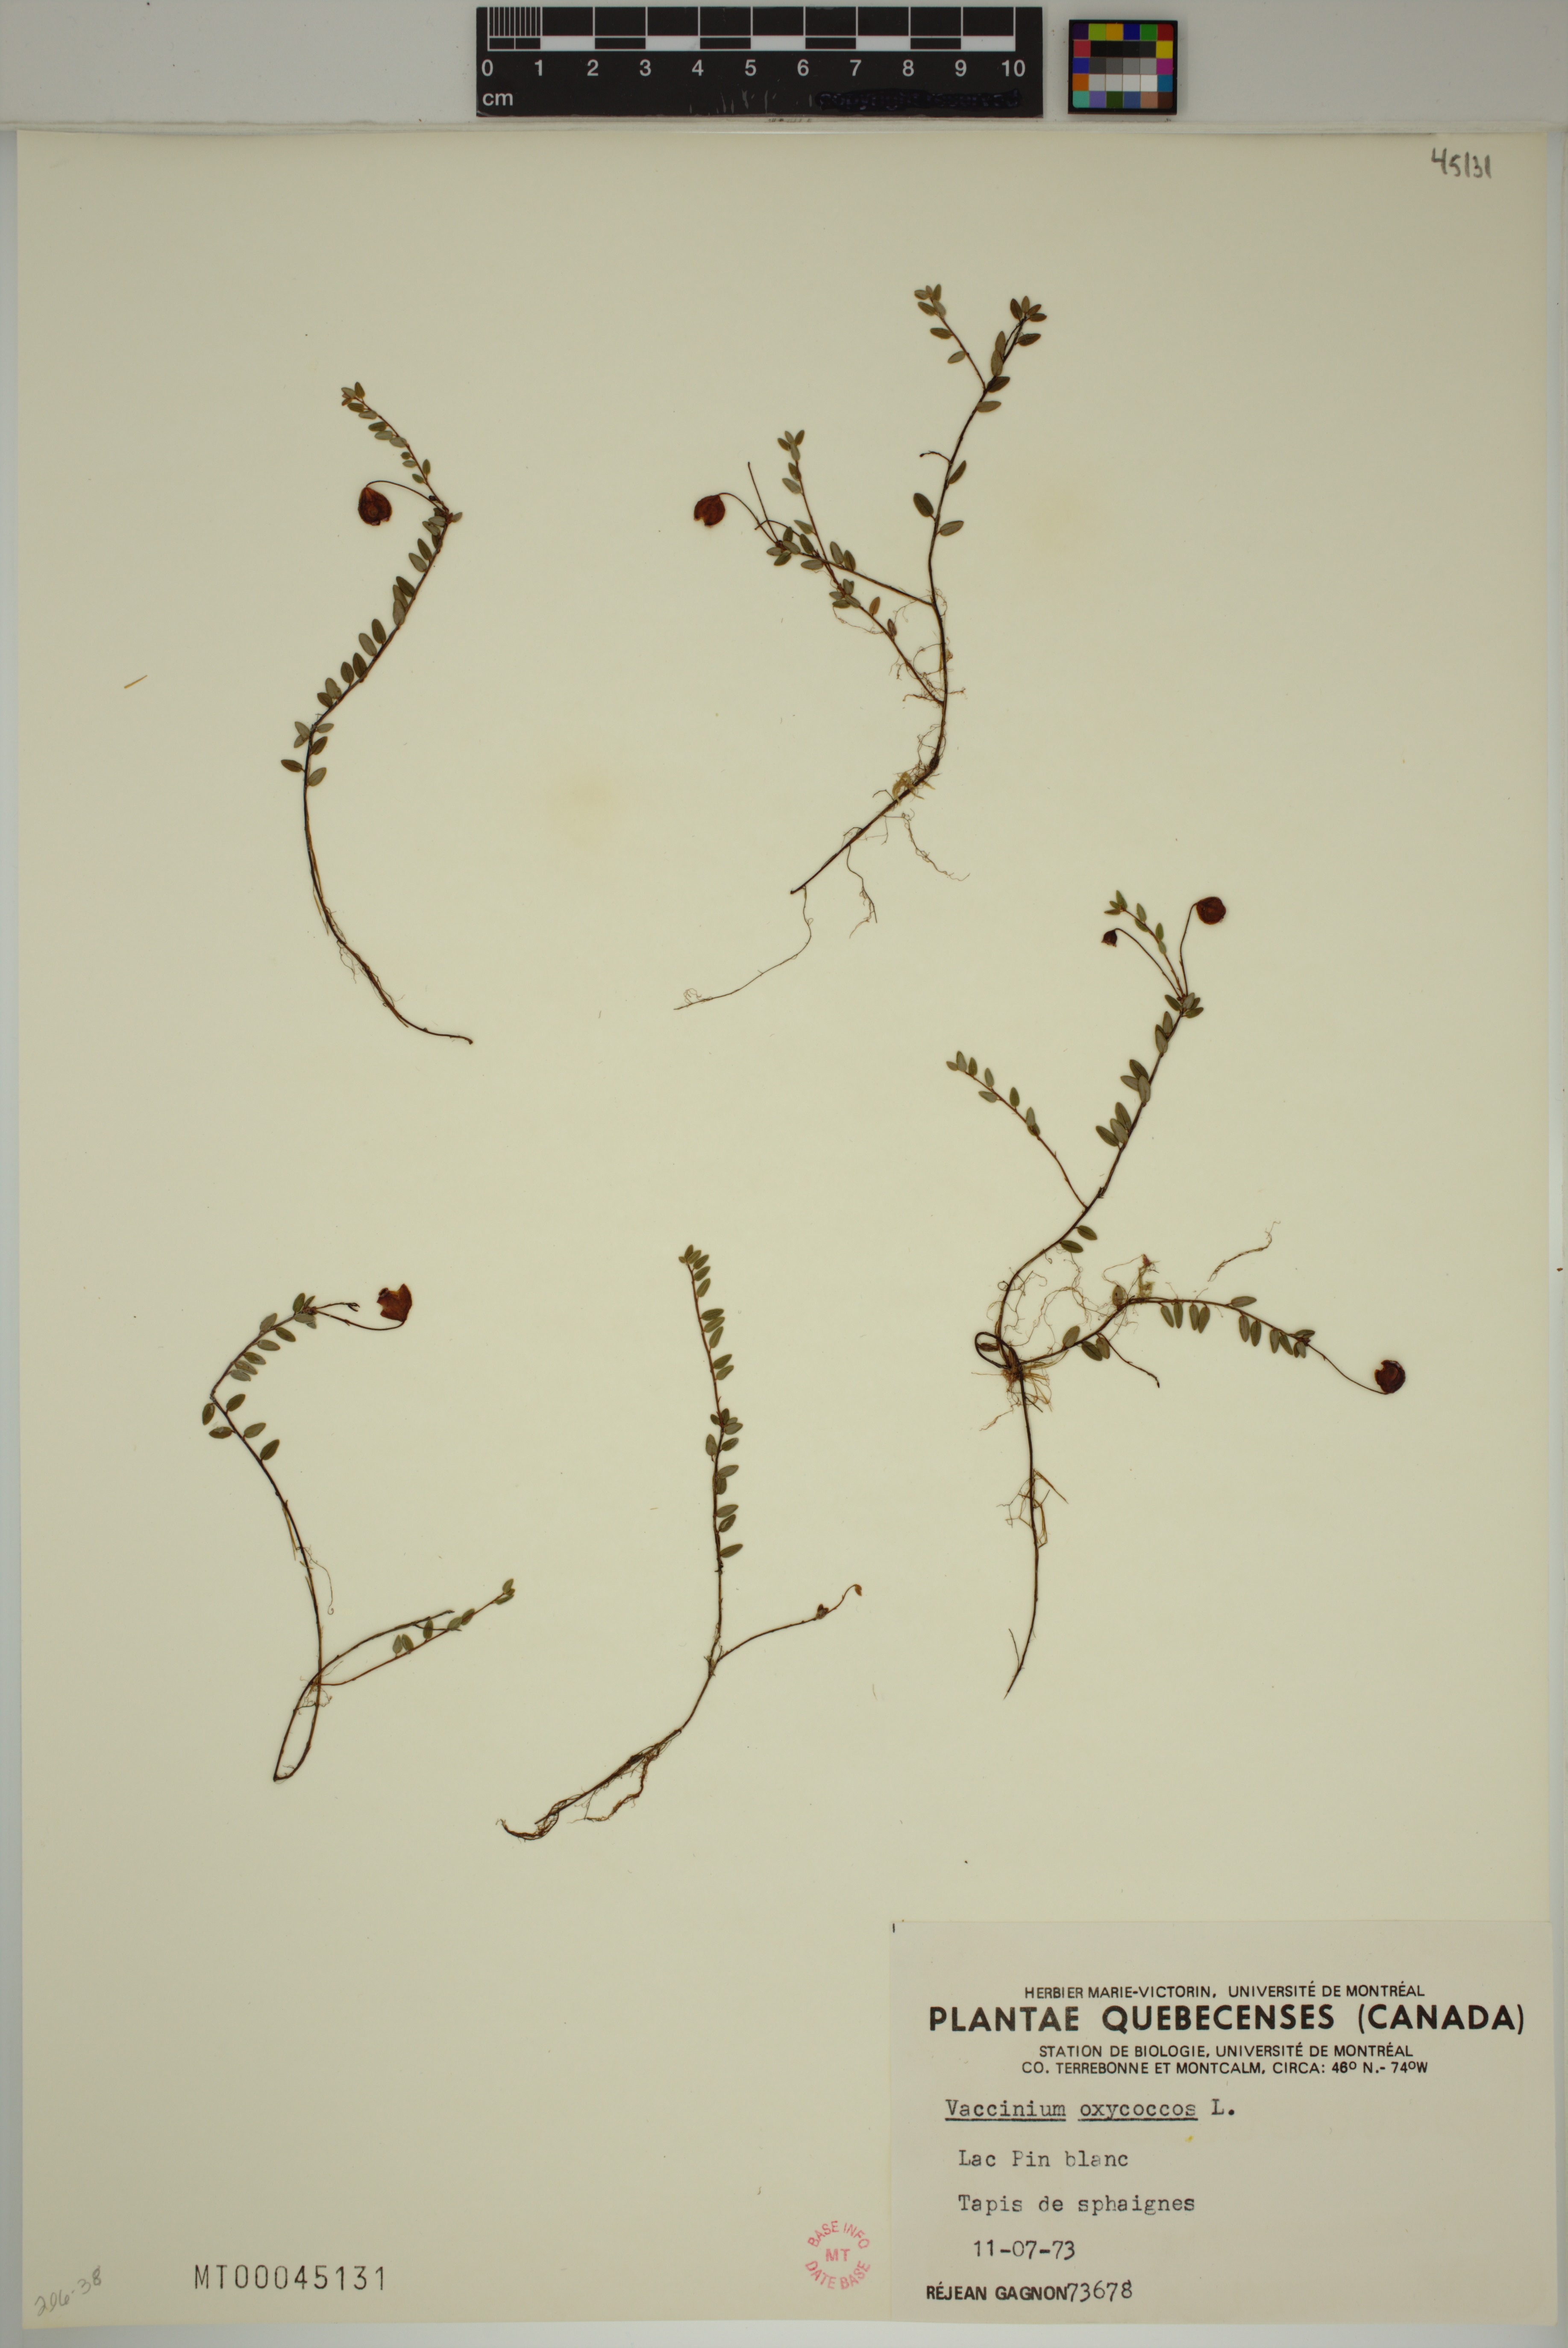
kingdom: Plantae
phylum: Tracheophyta
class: Magnoliopsida
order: Ericales
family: Ericaceae
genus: Vaccinium
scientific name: Vaccinium oxycoccos
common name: Cranberry
